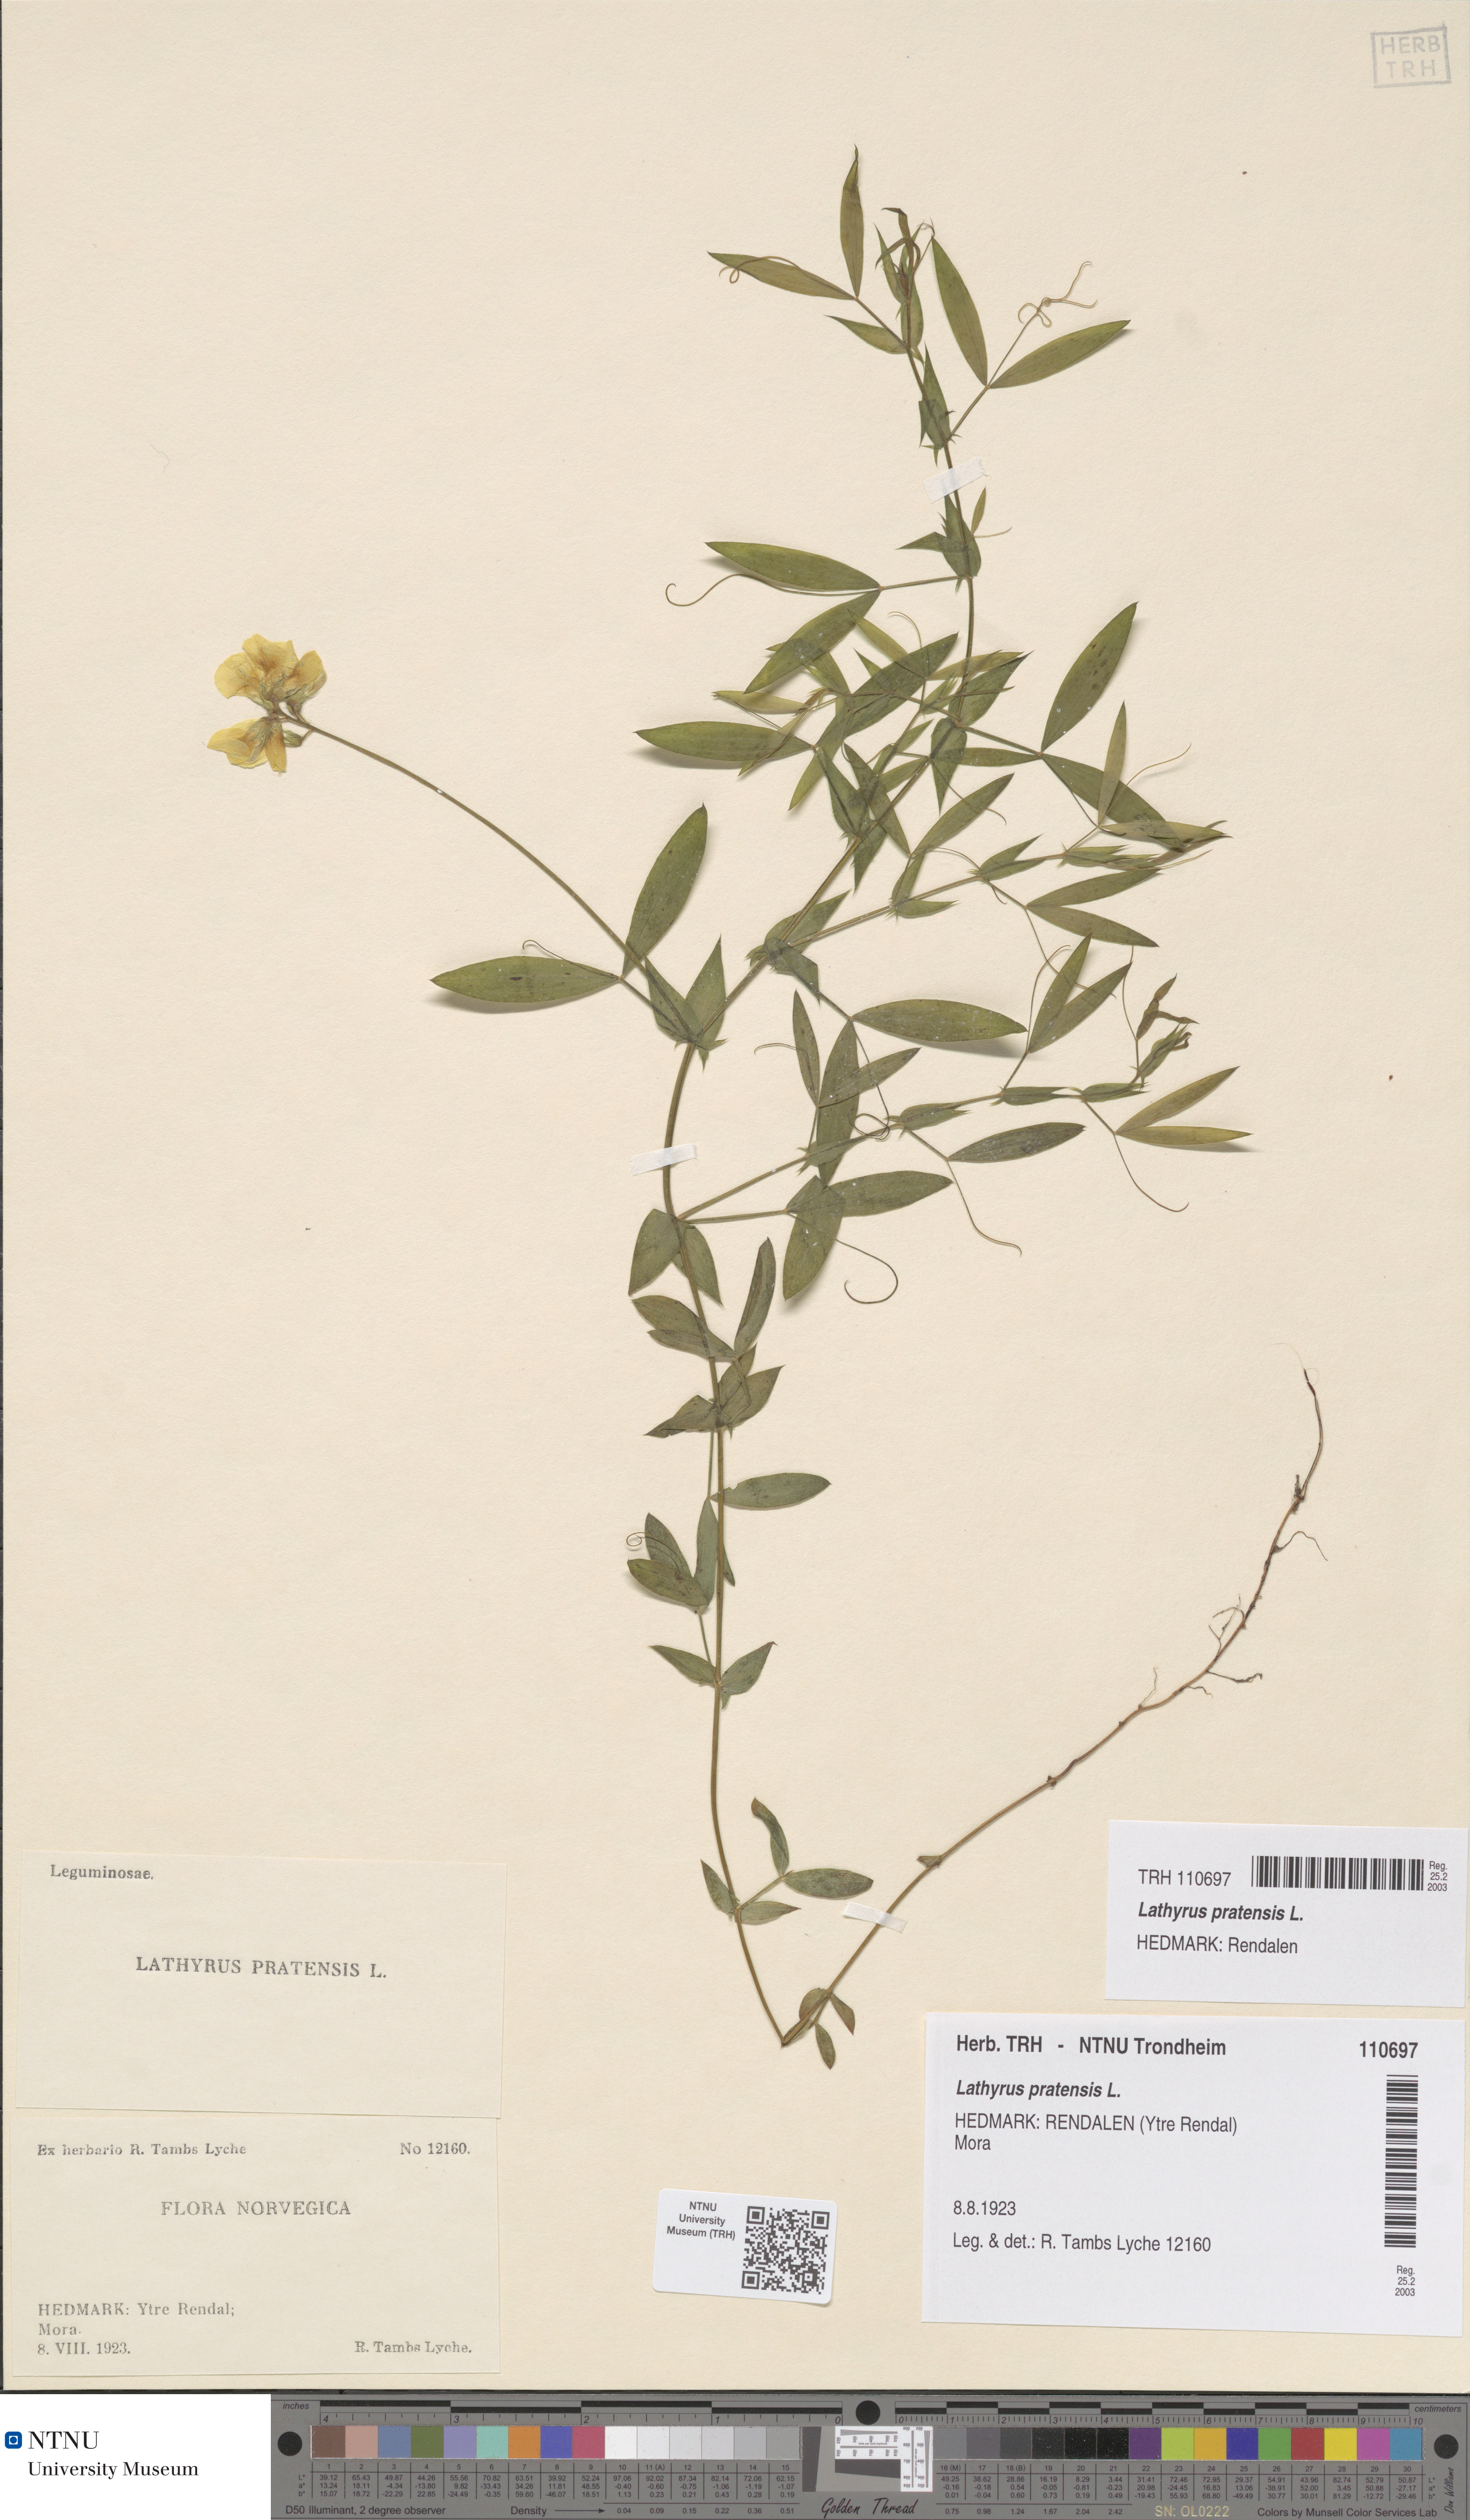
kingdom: Plantae
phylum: Tracheophyta
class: Magnoliopsida
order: Fabales
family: Fabaceae
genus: Lathyrus
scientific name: Lathyrus pratensis
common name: Meadow vetchling
